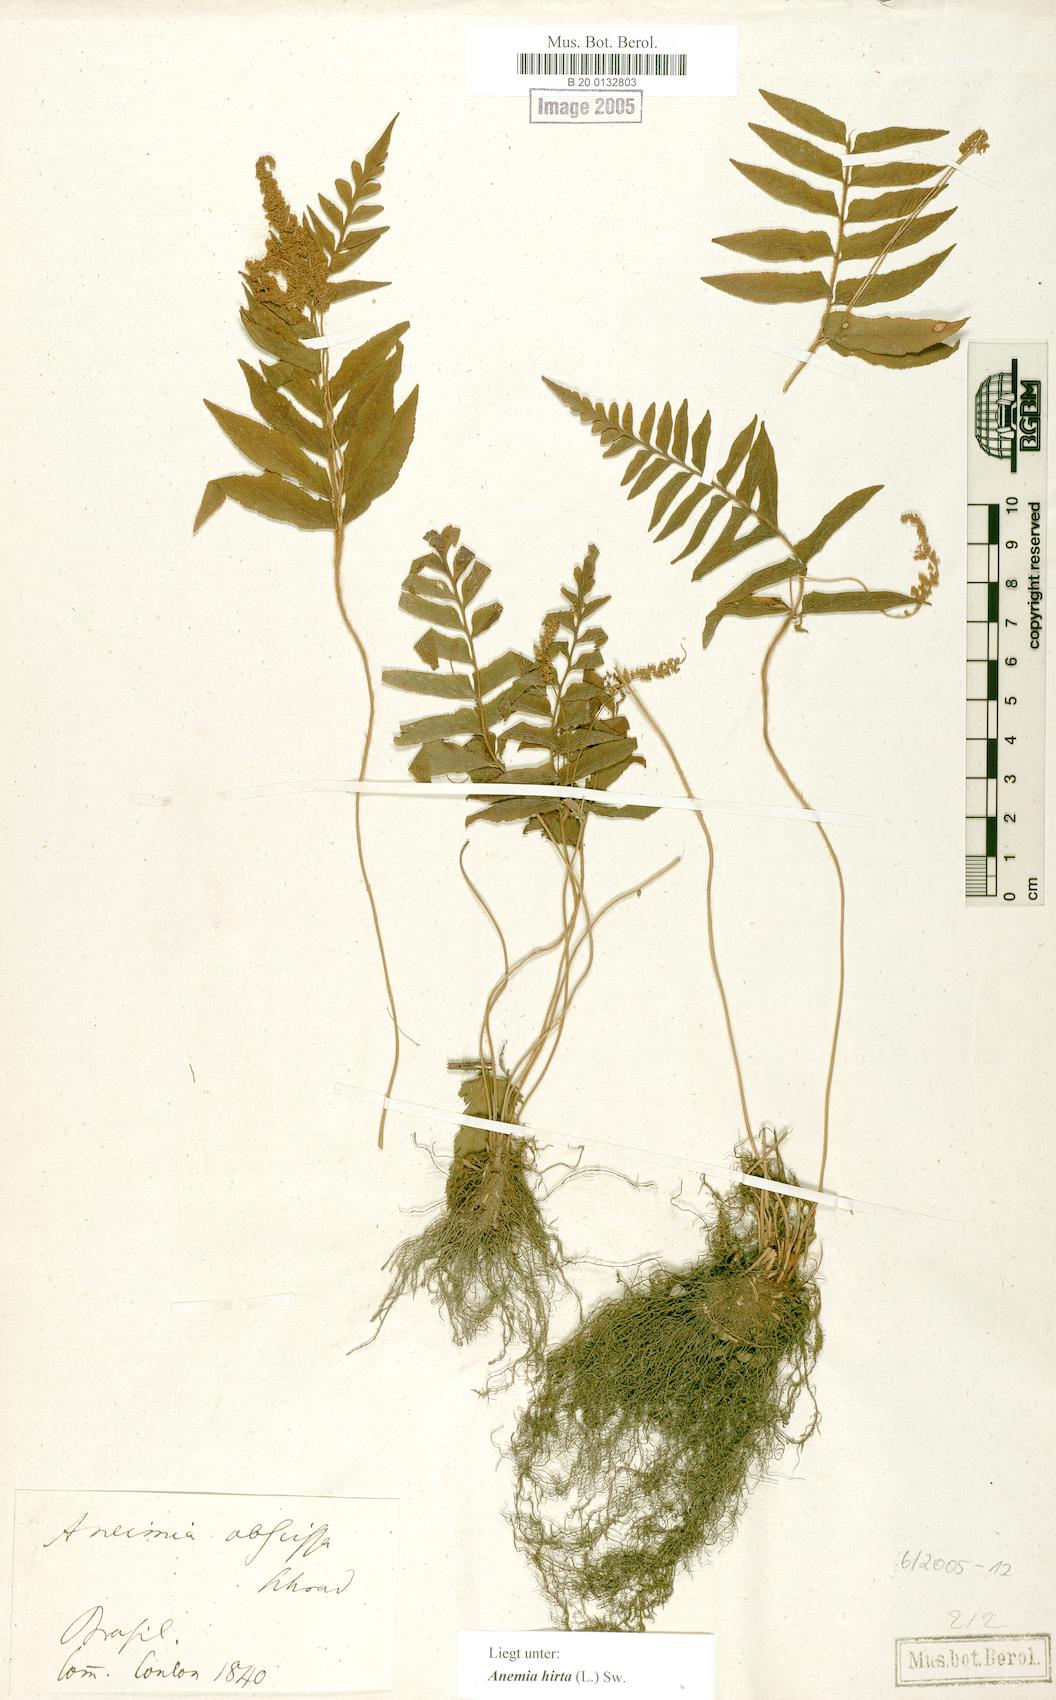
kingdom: Plantae
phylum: Tracheophyta
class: Polypodiopsida
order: Schizaeales
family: Anemiaceae
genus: Anemia
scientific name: Anemia hirta
